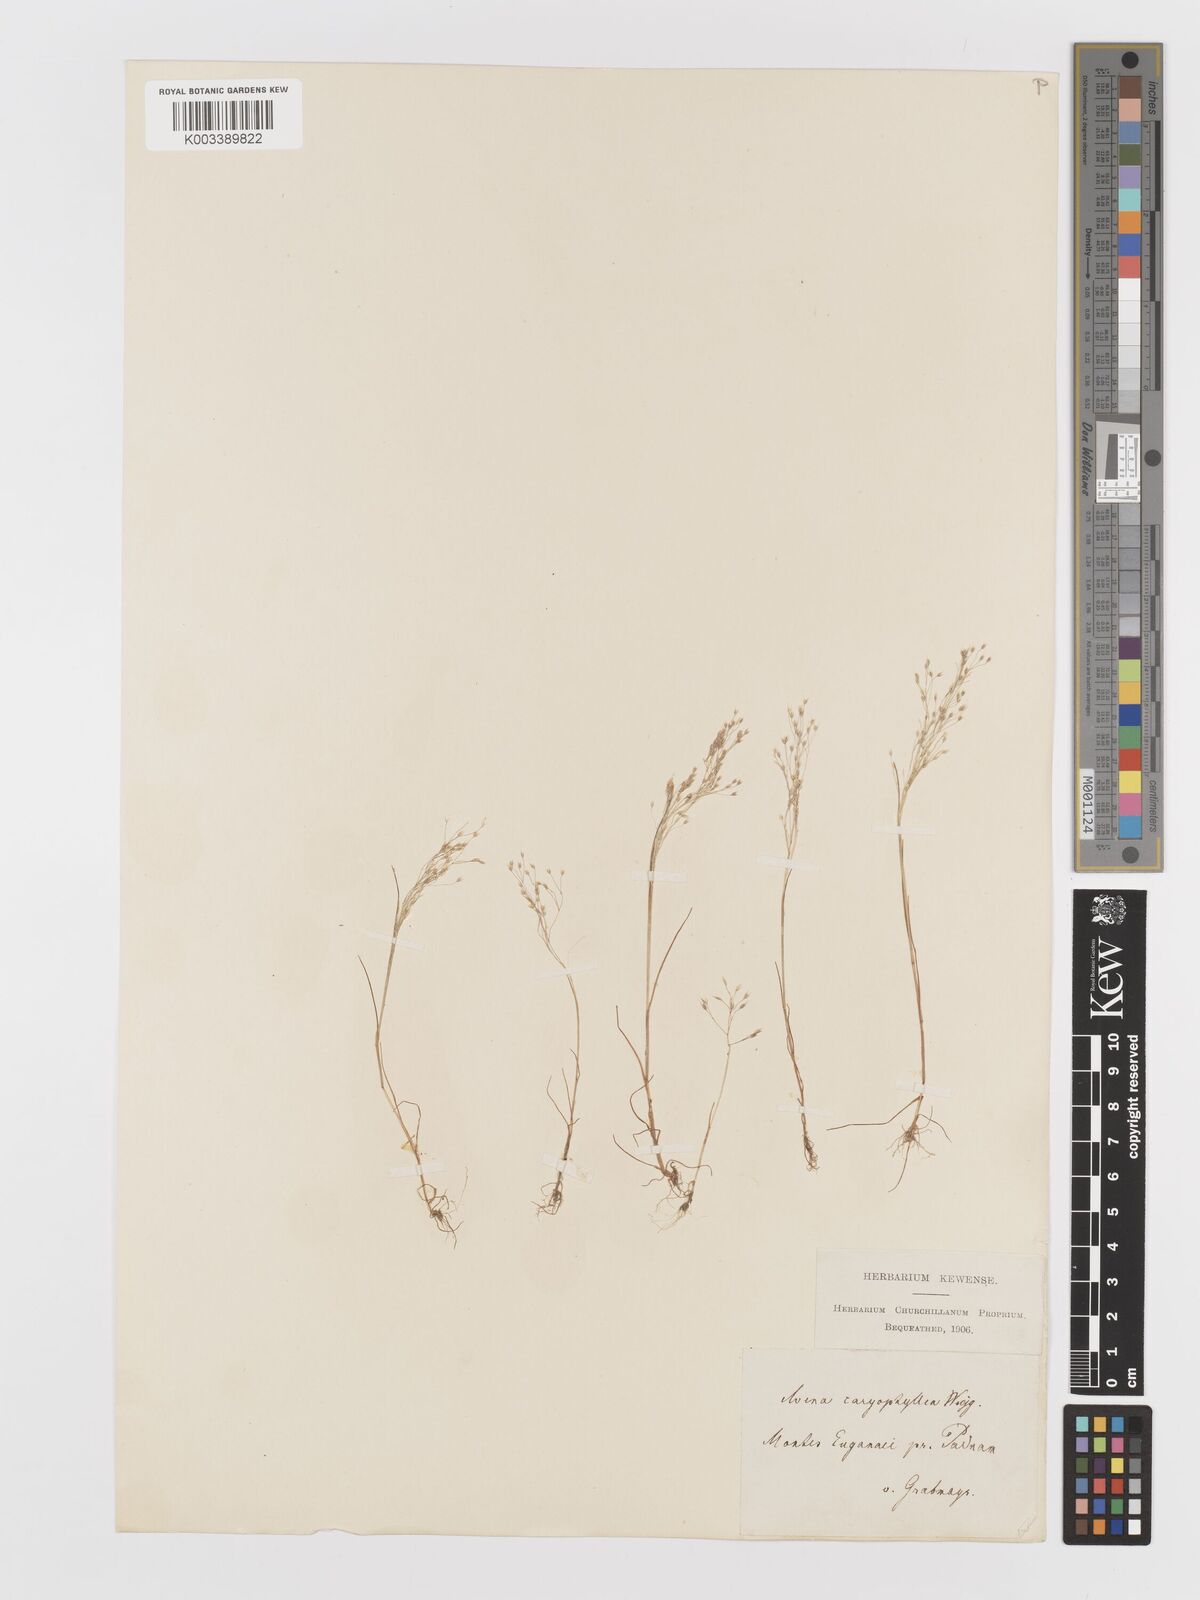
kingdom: Plantae
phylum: Tracheophyta
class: Liliopsida
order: Poales
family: Poaceae
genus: Aira
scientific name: Aira elegans
